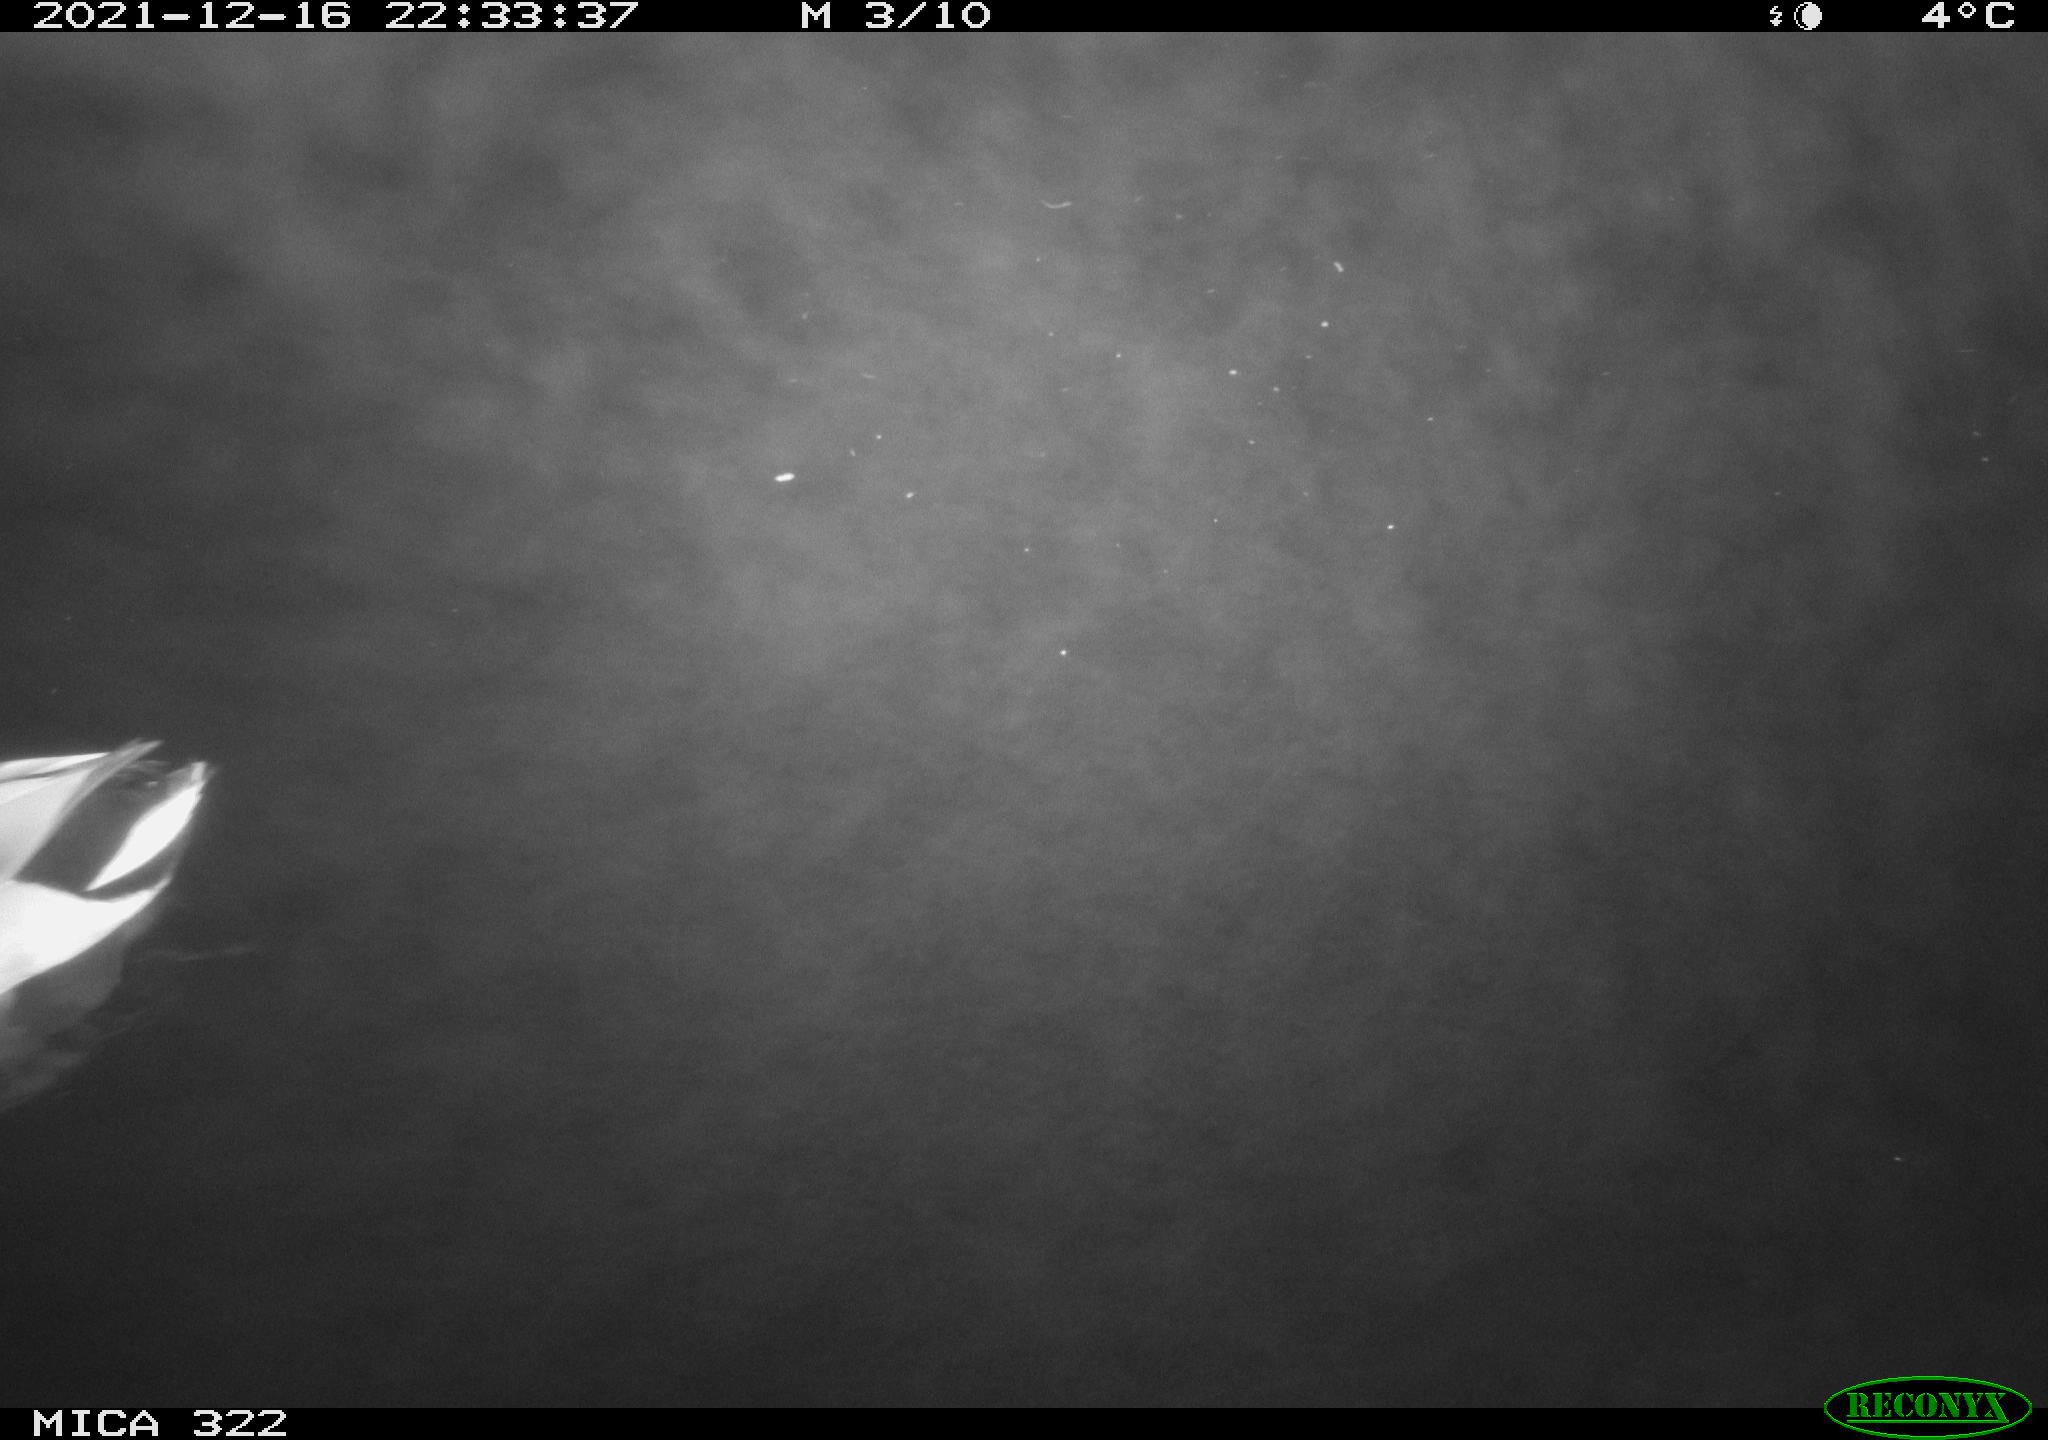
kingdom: Animalia
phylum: Chordata
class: Aves
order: Anseriformes
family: Anatidae
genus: Anas
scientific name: Anas
